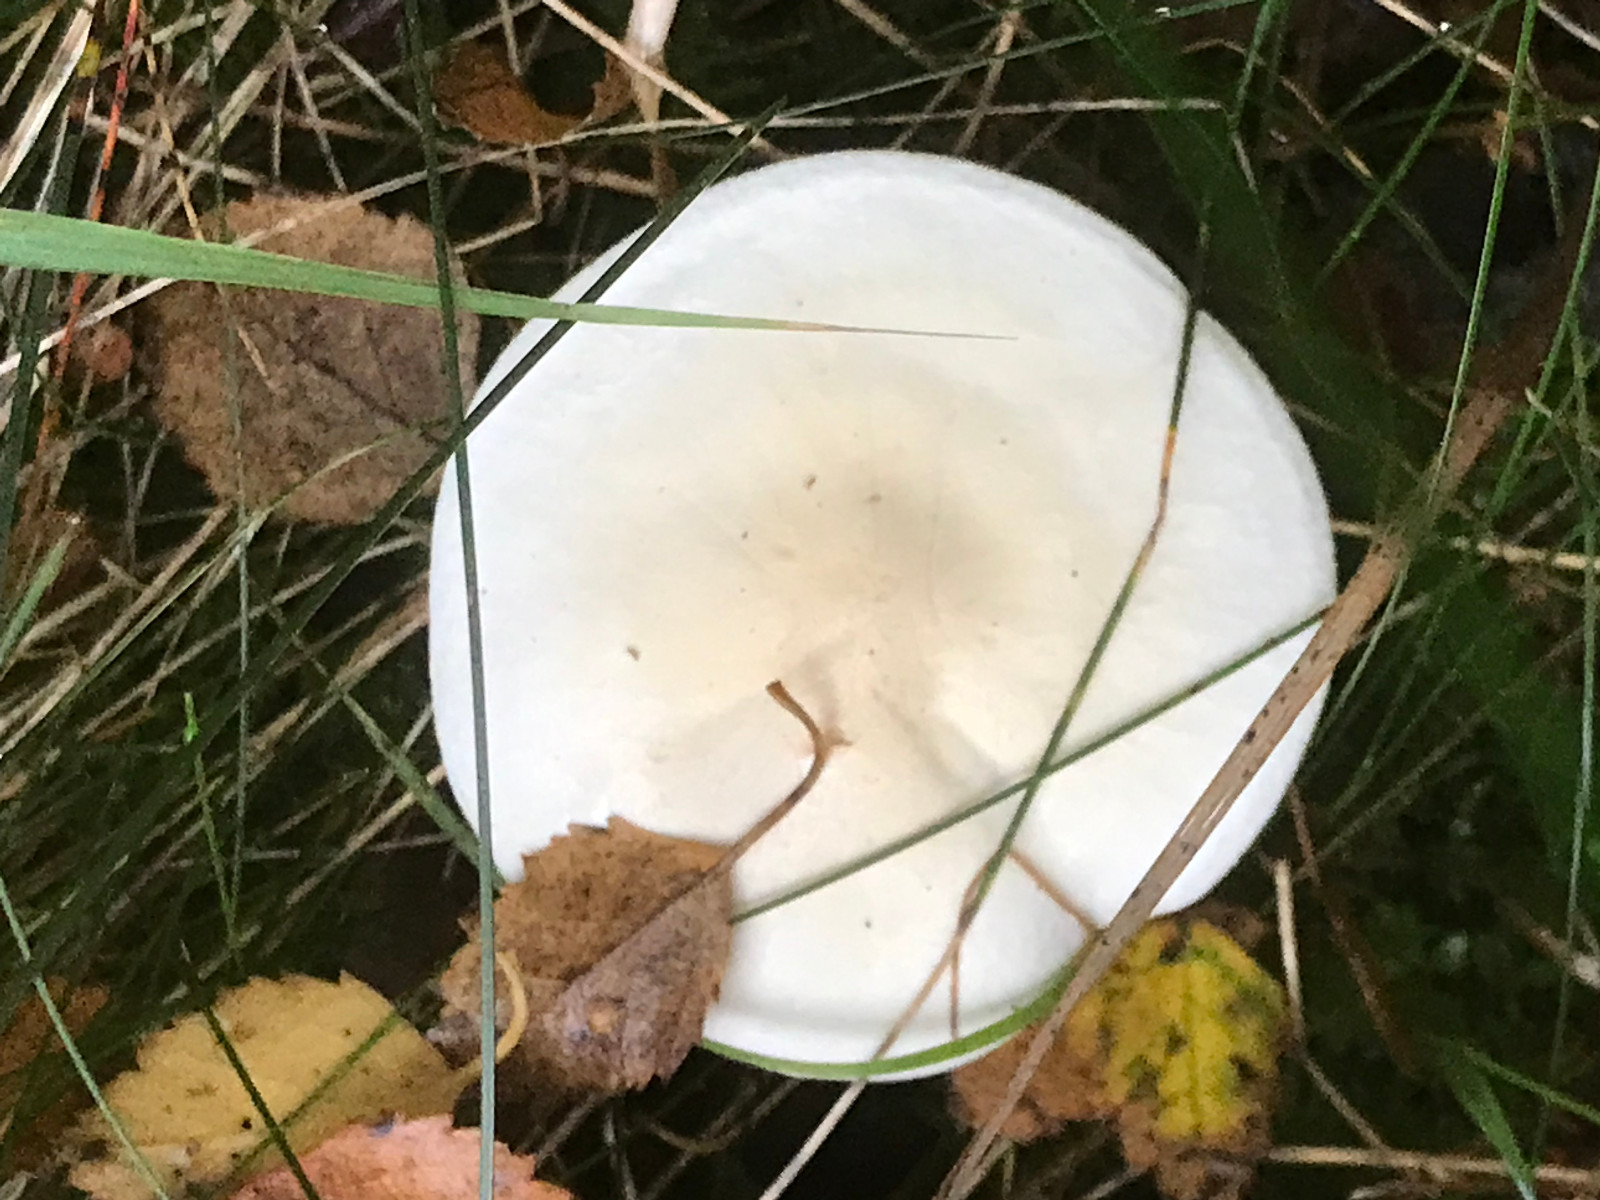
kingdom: Fungi
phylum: Basidiomycota
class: Agaricomycetes
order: Agaricales
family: Tricholomataceae
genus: Tricholoma
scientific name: Tricholoma stiparophyllum
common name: hvid ridderhat
